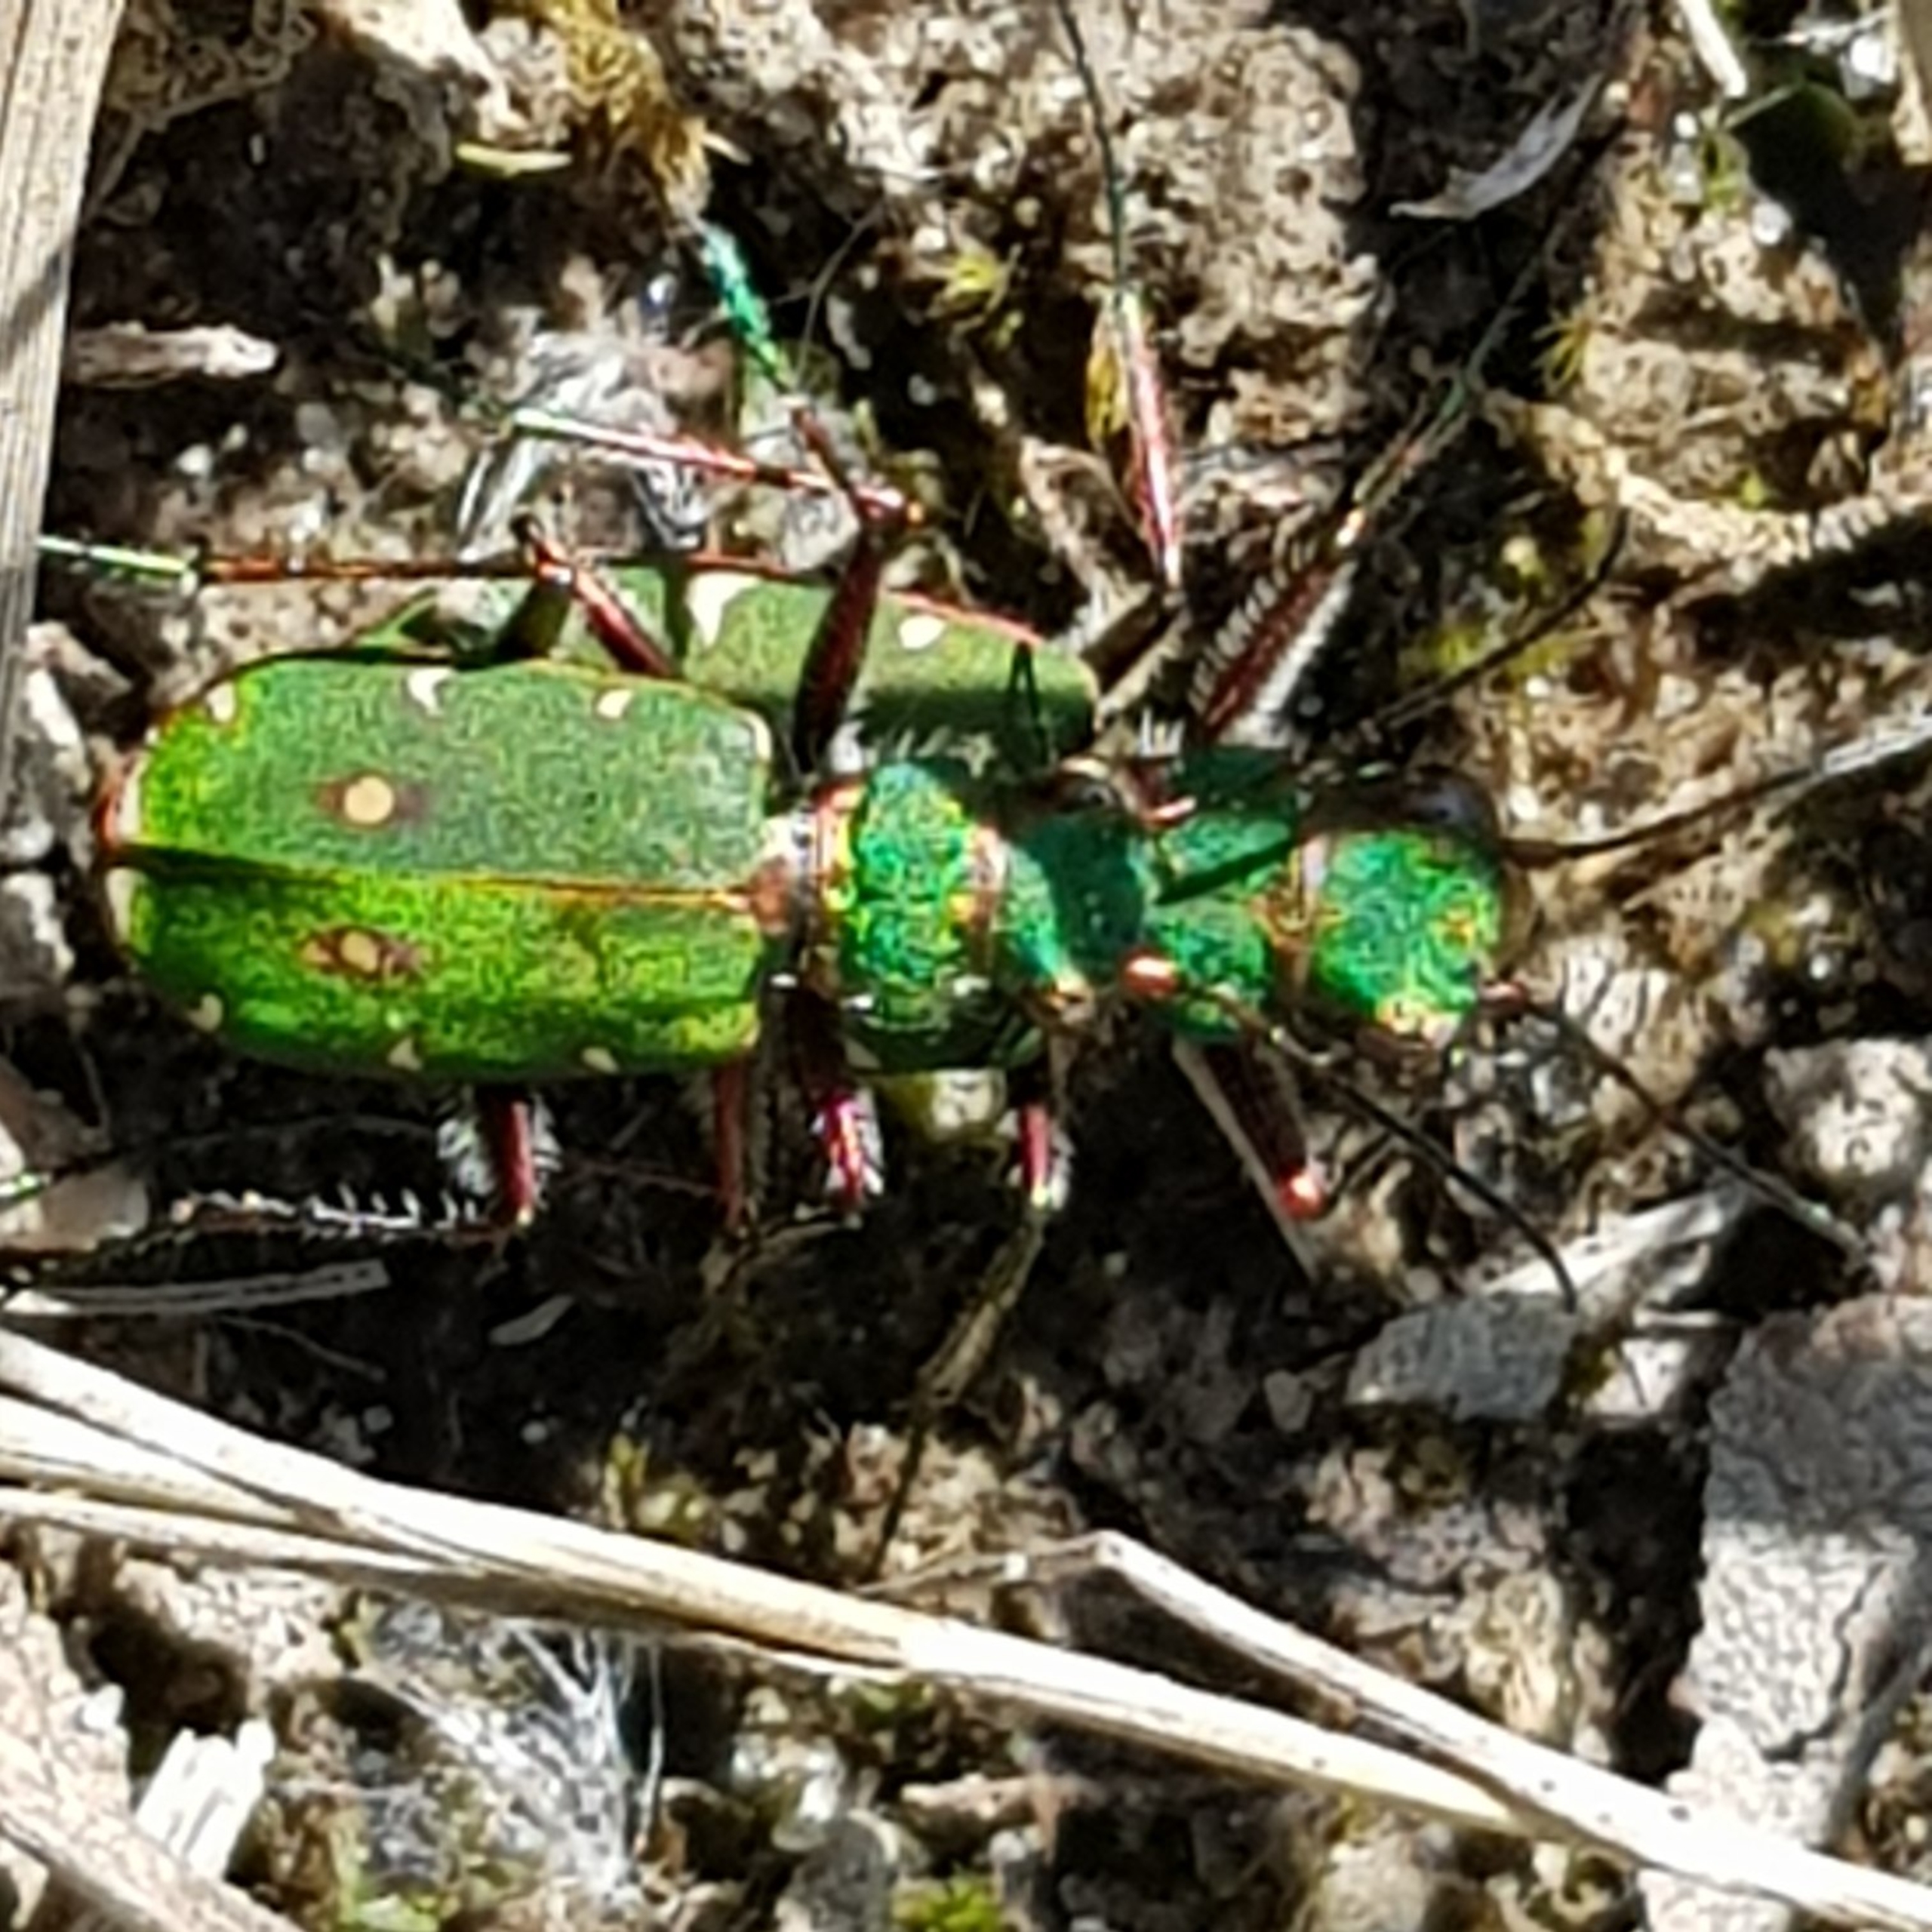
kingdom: Animalia
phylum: Arthropoda
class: Insecta
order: Coleoptera
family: Carabidae
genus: Cicindela
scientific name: Cicindela campestris
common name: Grøn sandspringer
